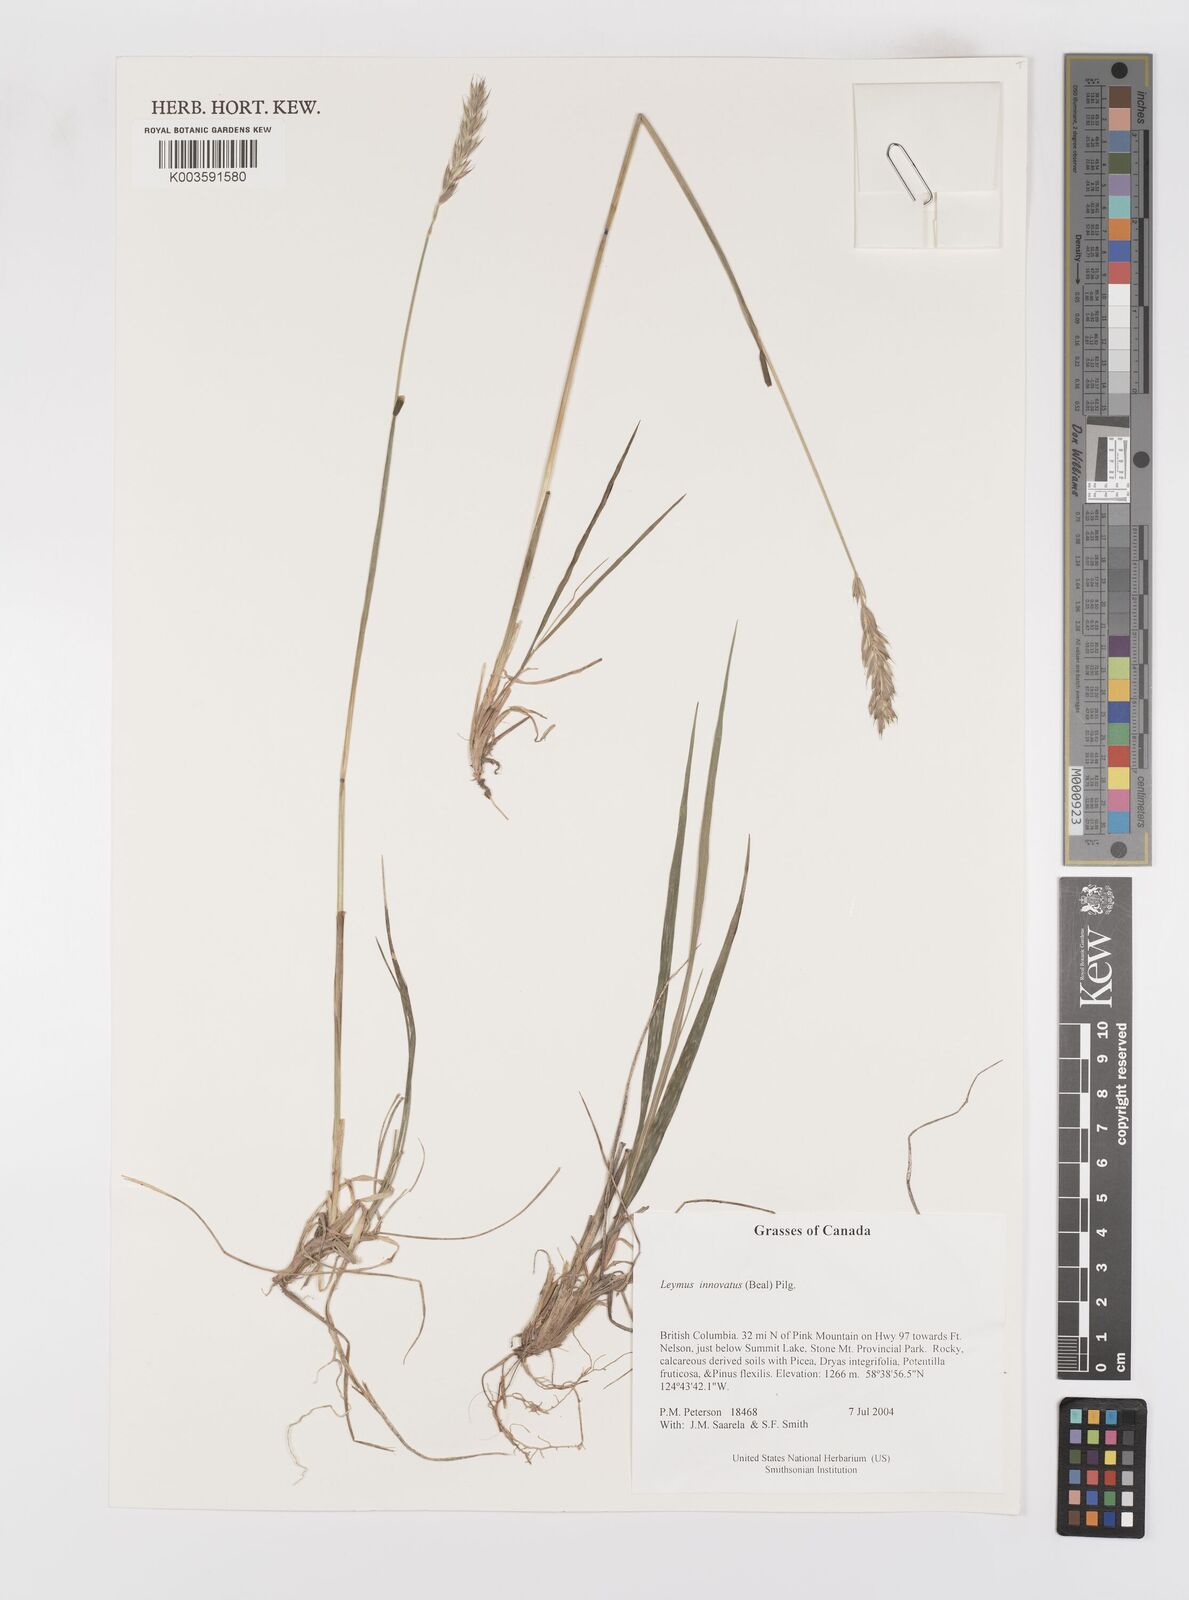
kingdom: Plantae
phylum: Tracheophyta
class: Liliopsida
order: Poales
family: Poaceae
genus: Leymus
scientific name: Leymus innovatus
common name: Boreal wild rye
